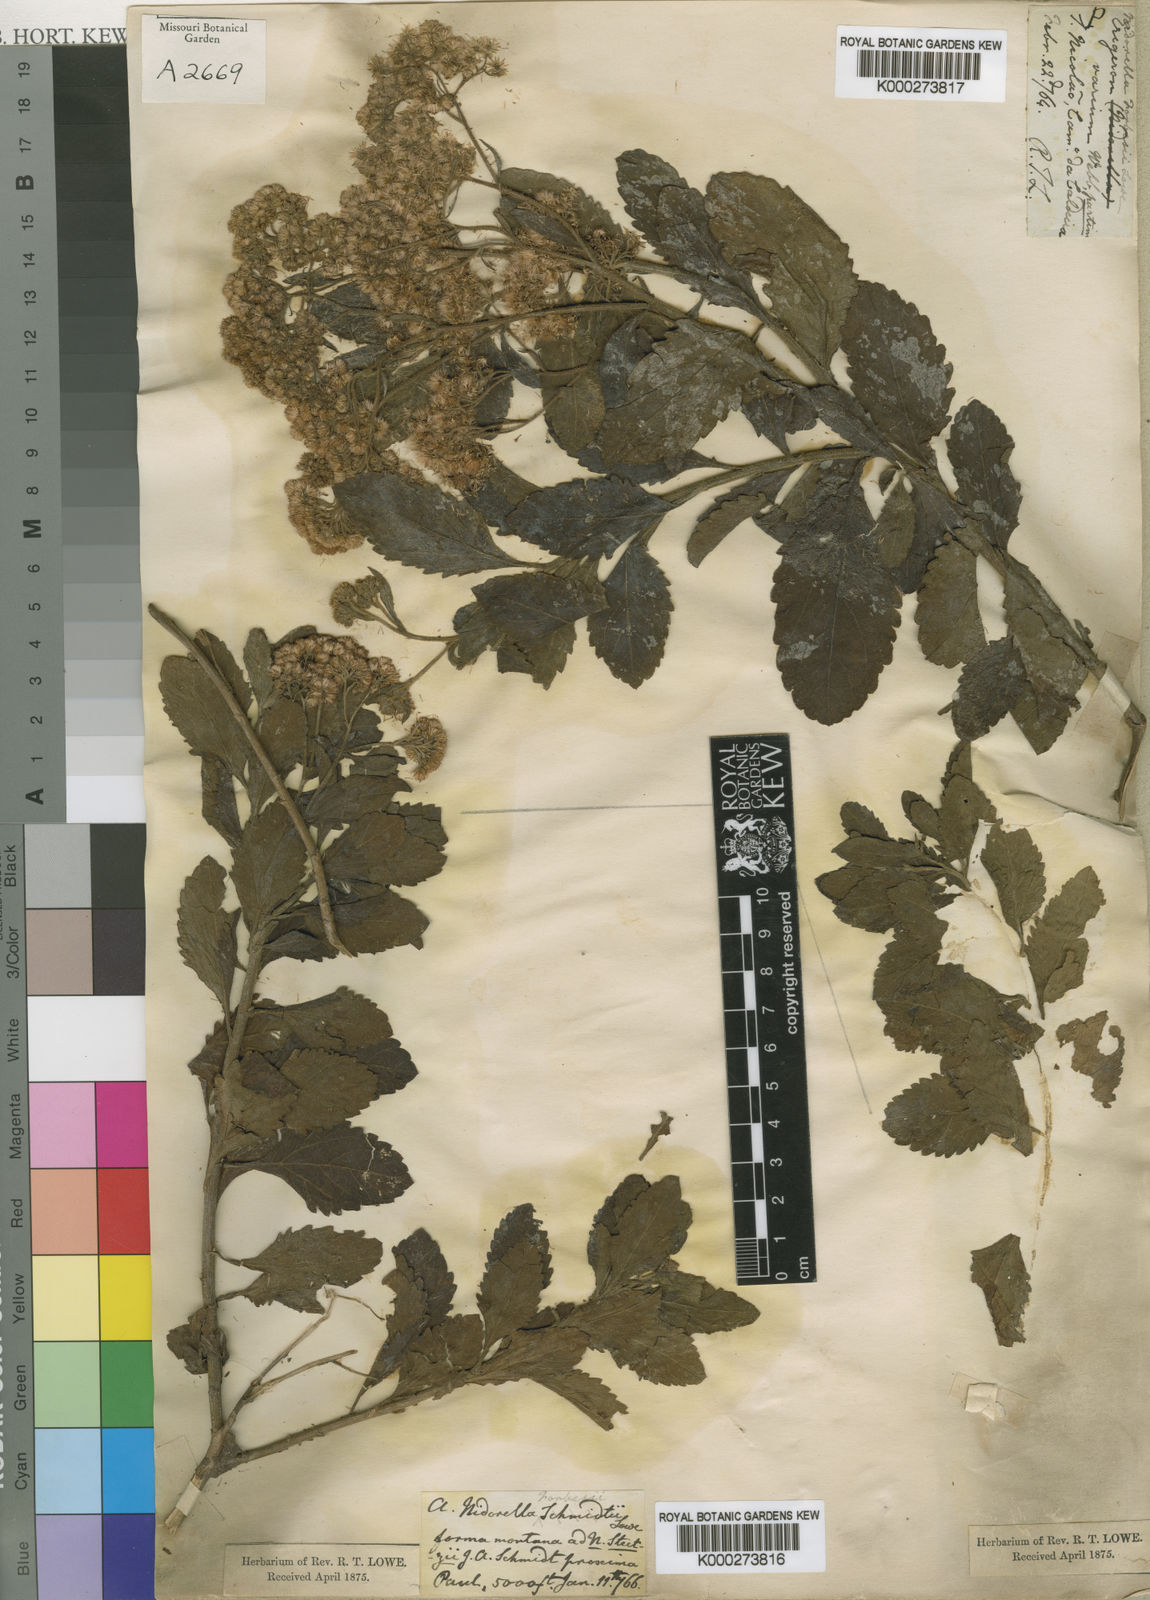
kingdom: Plantae
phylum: Tracheophyta
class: Magnoliopsida
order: Asterales
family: Asteraceae
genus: Nidorella
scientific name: Nidorella
